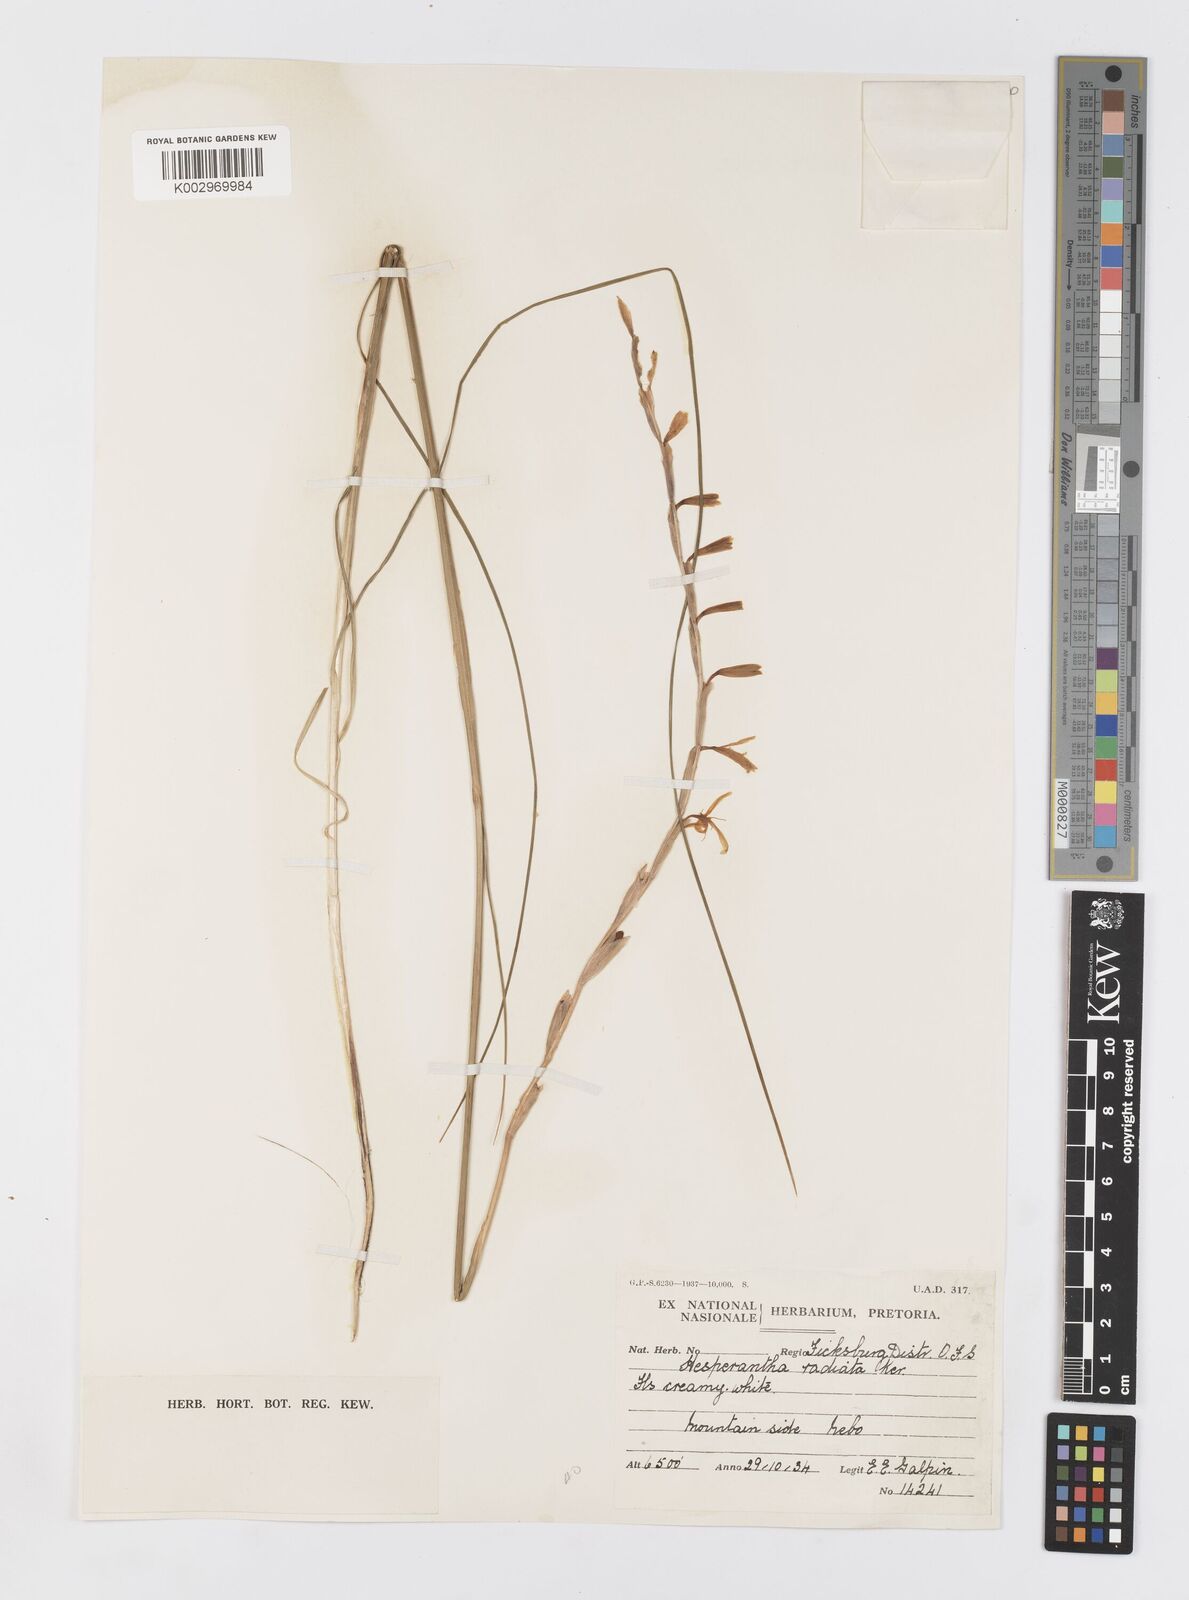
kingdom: Plantae
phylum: Tracheophyta
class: Liliopsida
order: Asparagales
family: Iridaceae
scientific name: Iridaceae
